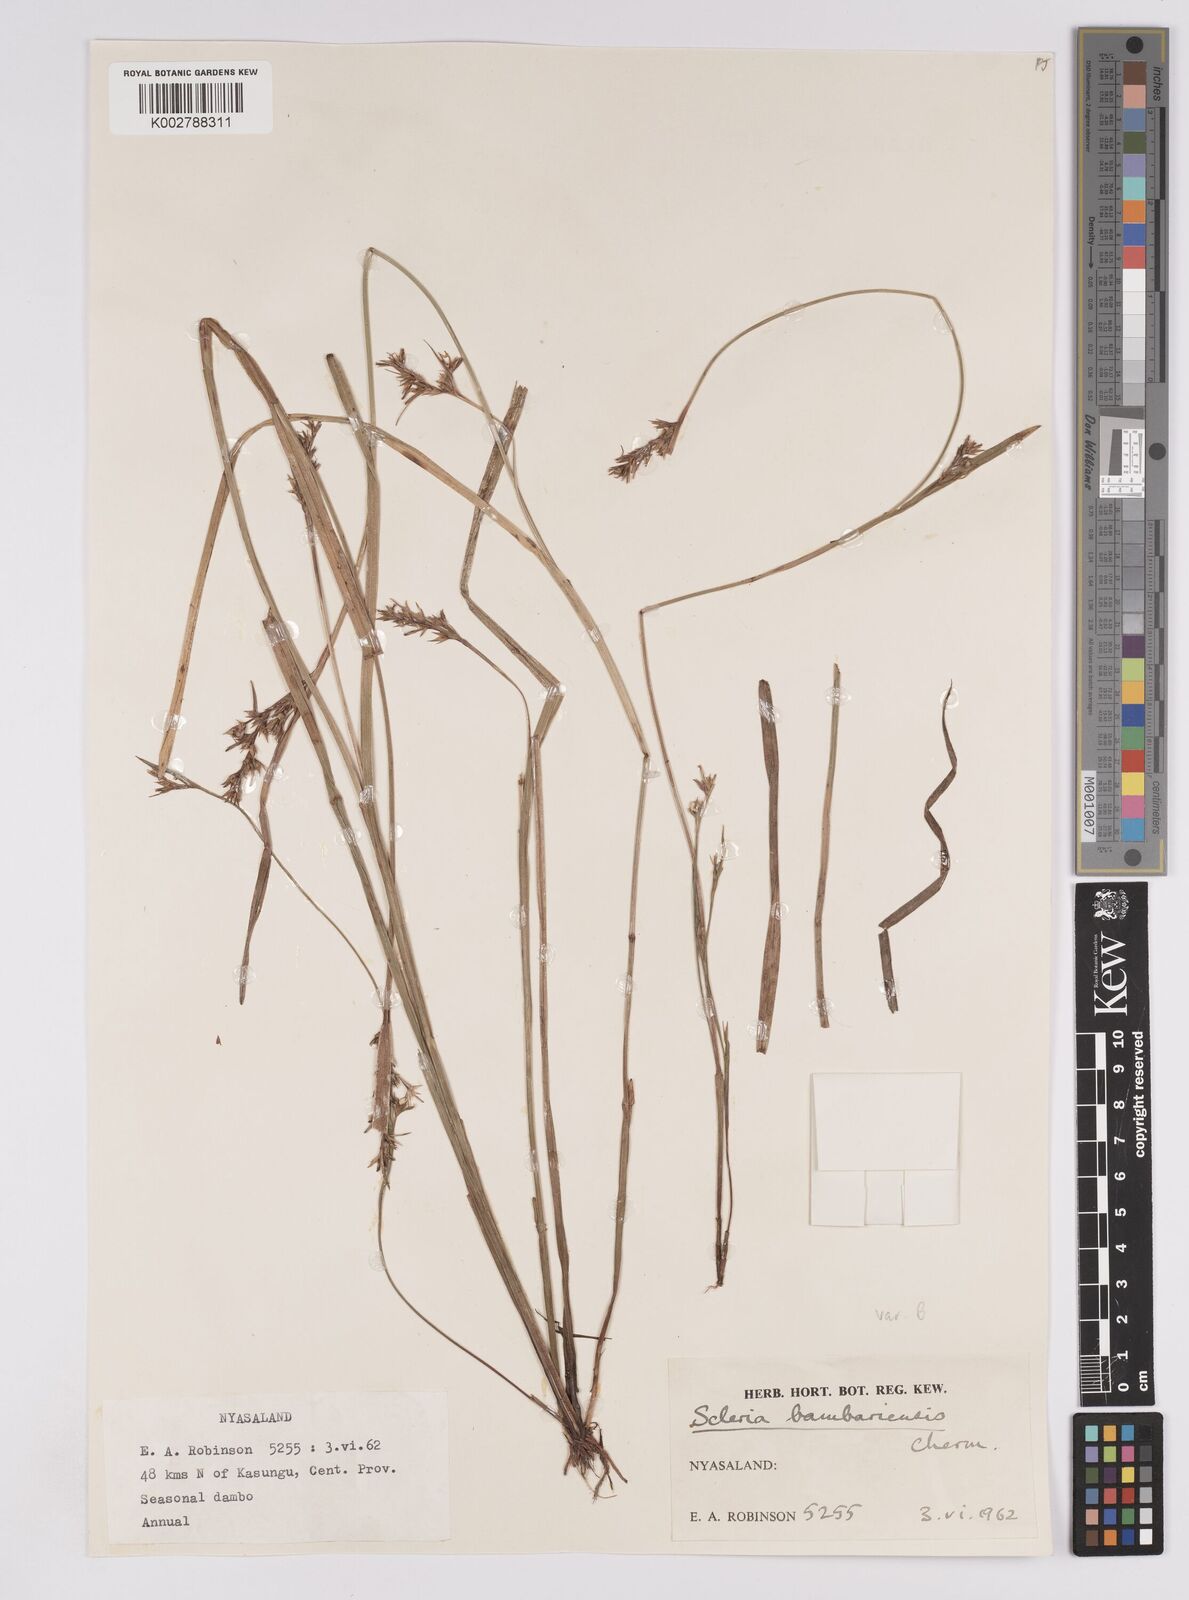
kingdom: Plantae
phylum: Tracheophyta
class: Liliopsida
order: Poales
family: Cyperaceae
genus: Scleria
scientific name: Scleria bambariensis
